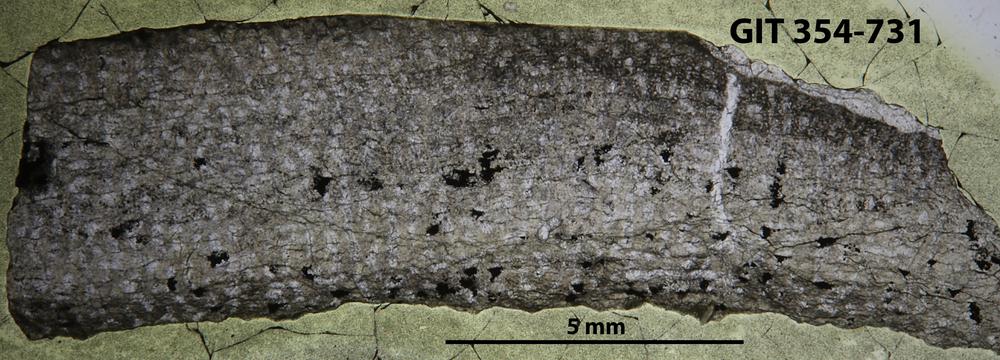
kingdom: Animalia
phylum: Porifera
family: Syringostromellidae
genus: Syringostromella
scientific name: Syringostromella
